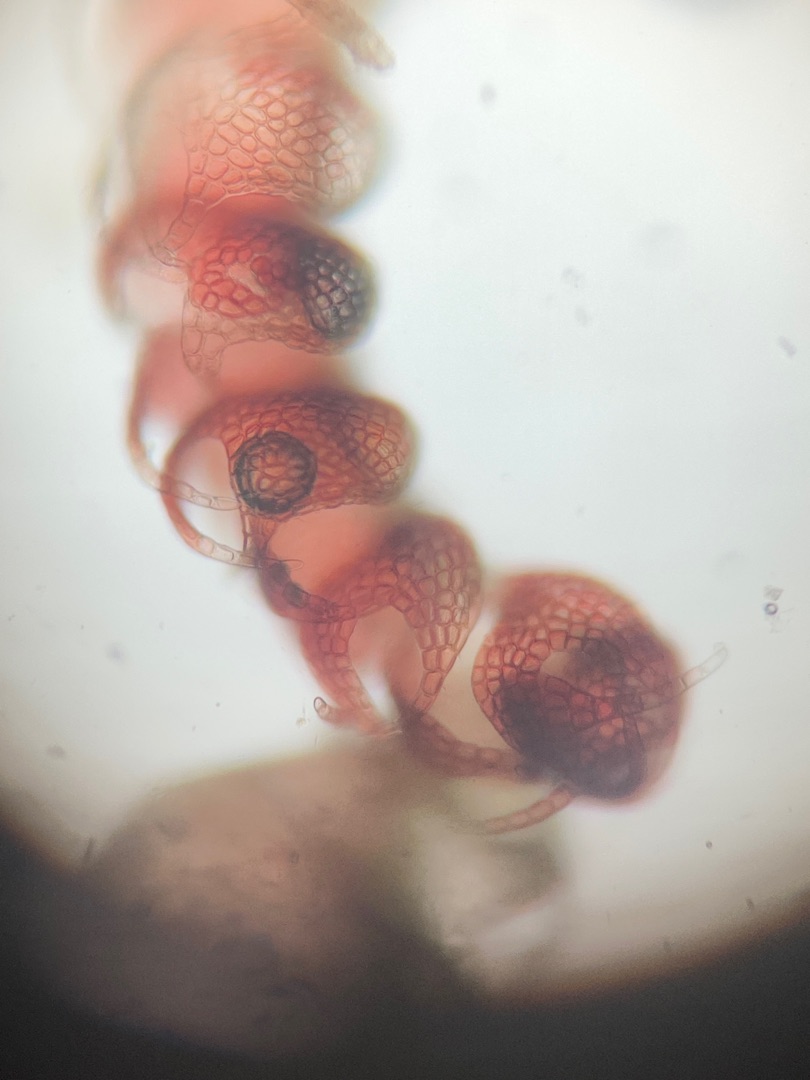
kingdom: Plantae
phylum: Marchantiophyta
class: Jungermanniopsida
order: Jungermanniales
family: Cephaloziaceae
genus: Nowellia
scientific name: Nowellia curvifolia
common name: Krumbladet stødmos
